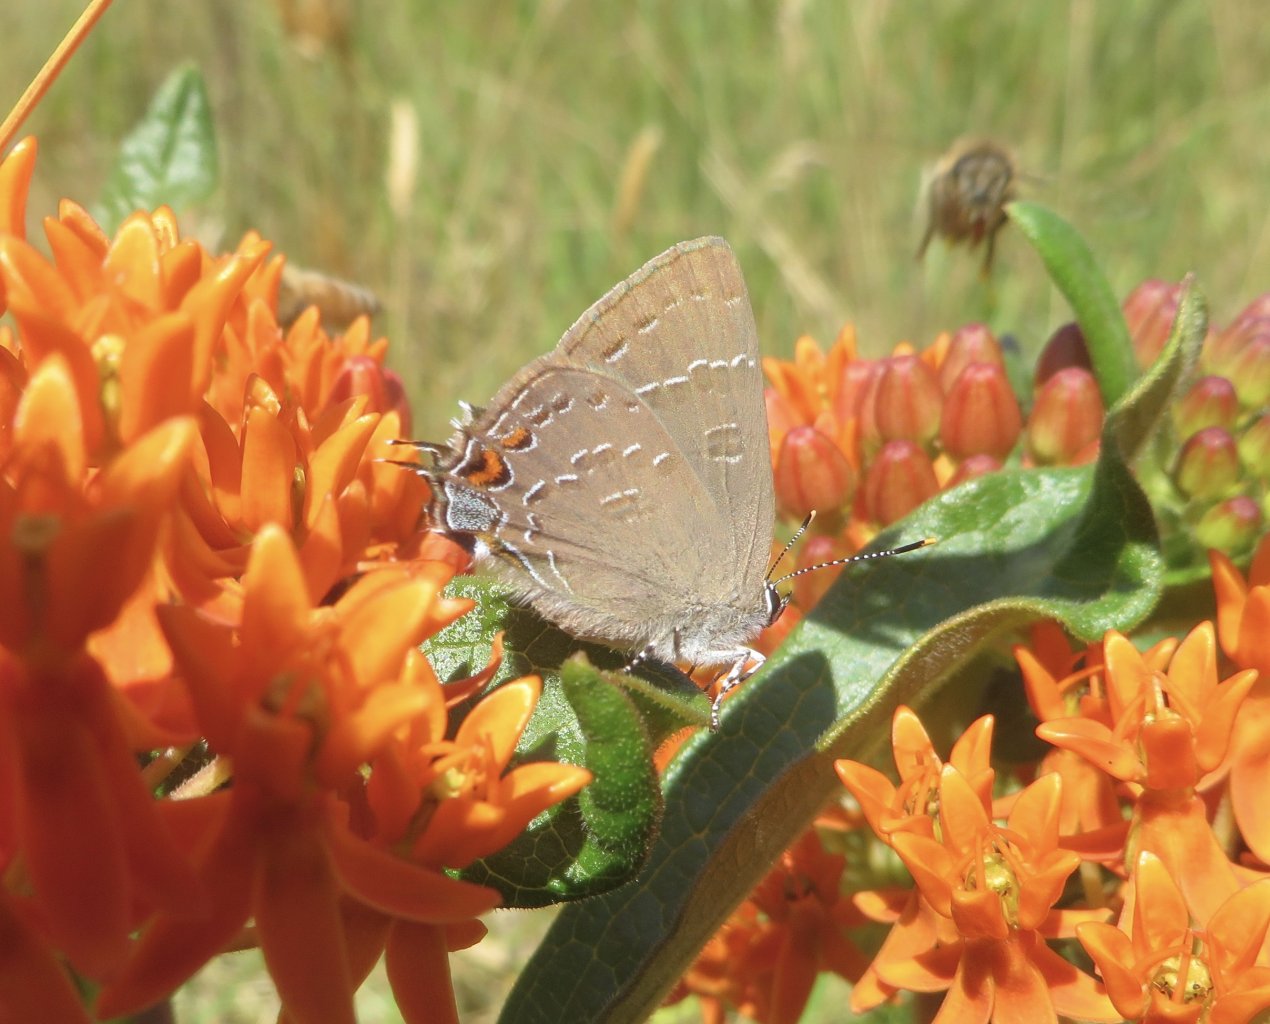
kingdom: Animalia
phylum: Arthropoda
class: Insecta
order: Lepidoptera
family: Lycaenidae
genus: Satyrium
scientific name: Satyrium calanus
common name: Banded Hairstreak
